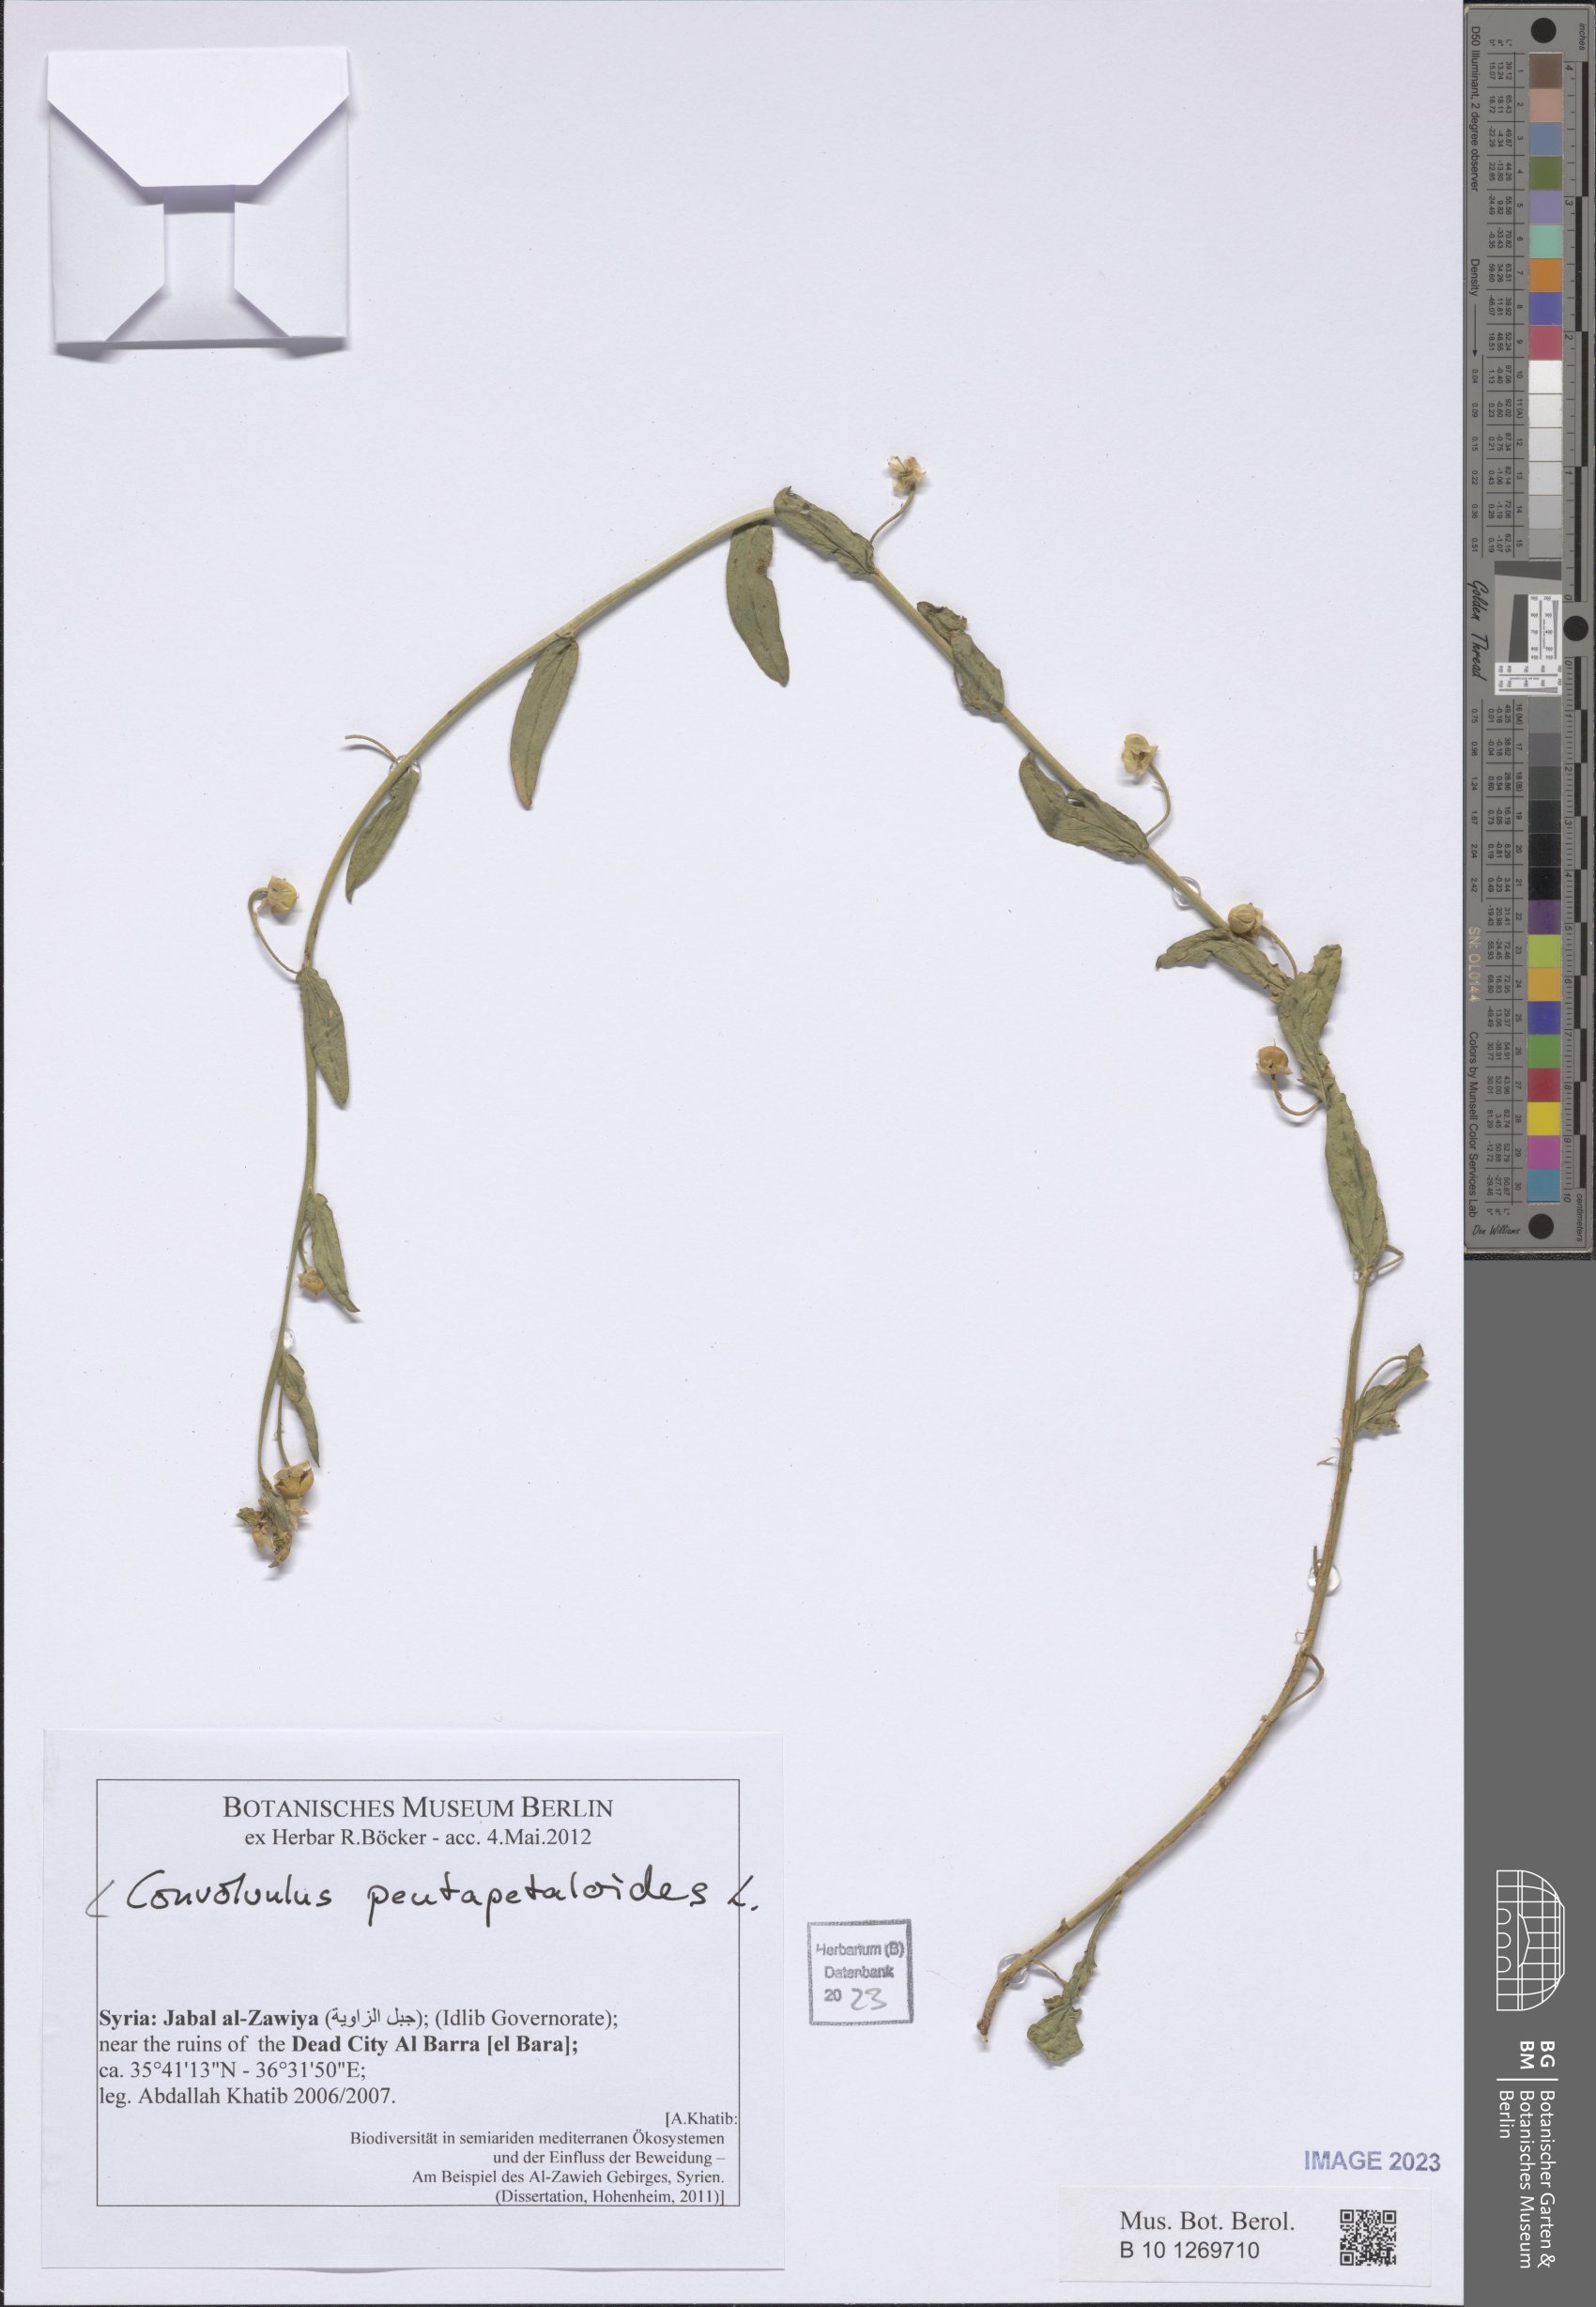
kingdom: Plantae
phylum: Tracheophyta
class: Magnoliopsida
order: Solanales
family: Convolvulaceae
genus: Convolvulus
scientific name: Convolvulus pentapetaloides
